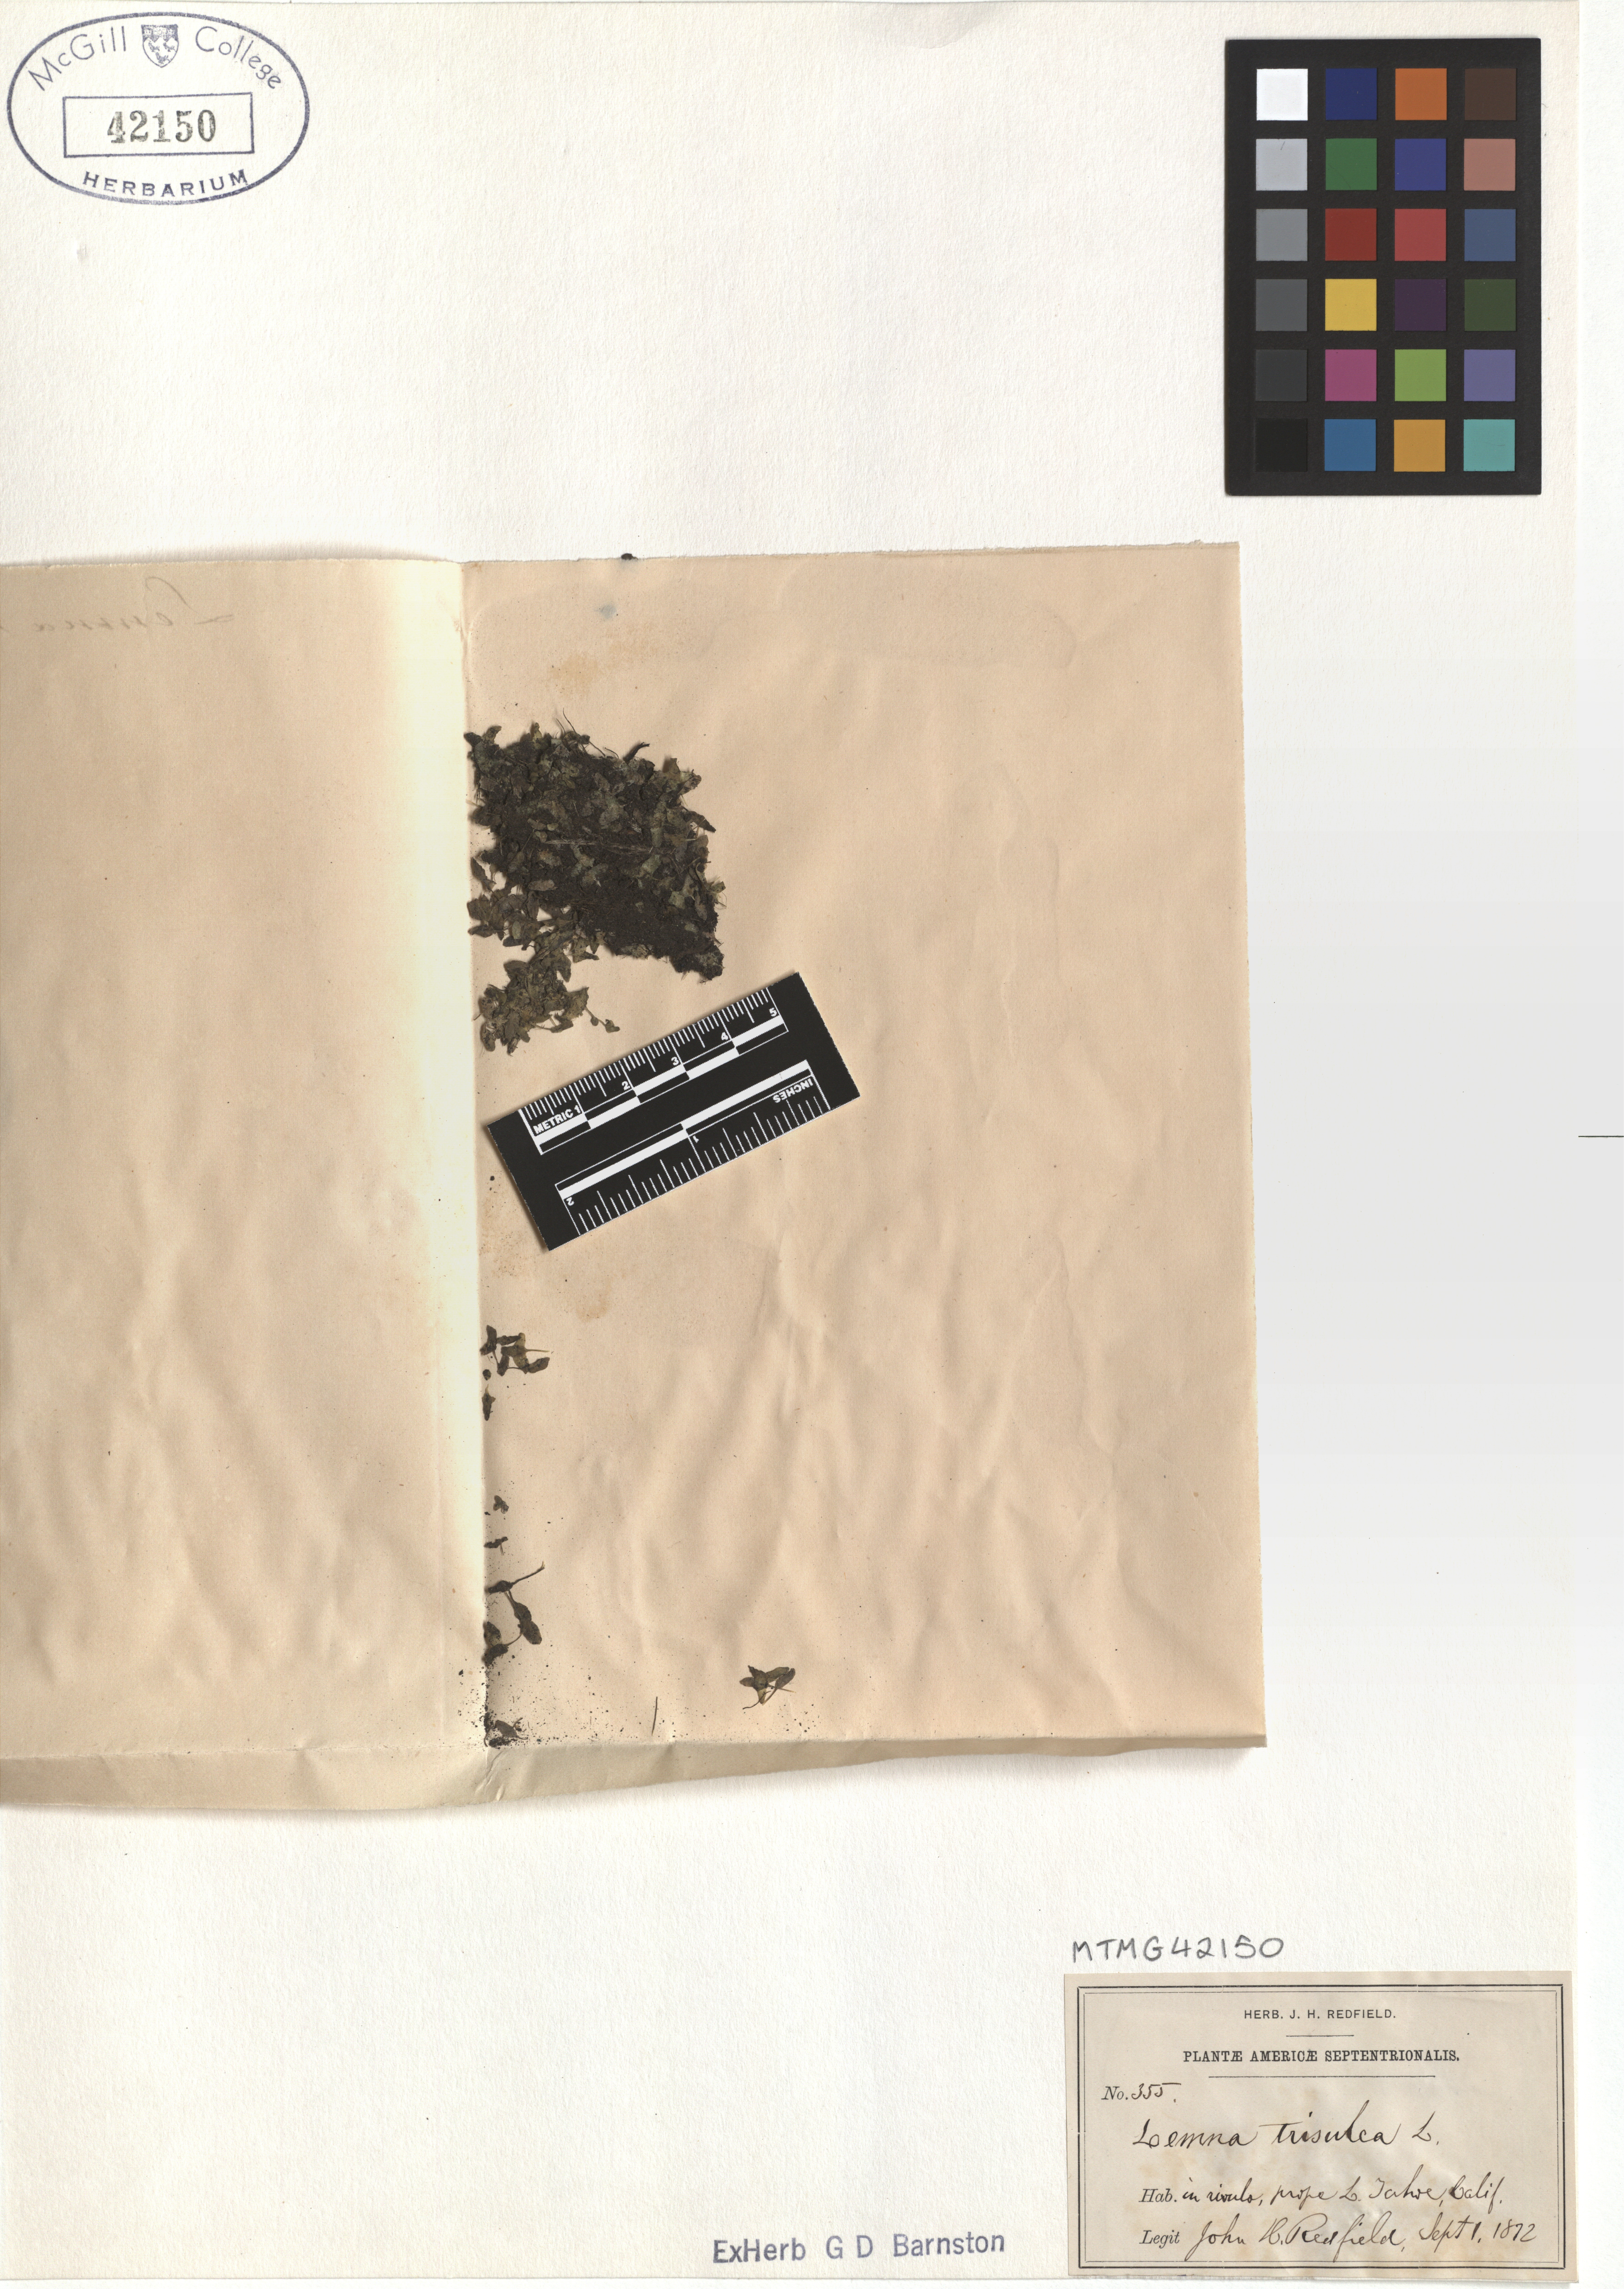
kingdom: Plantae
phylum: Tracheophyta
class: Liliopsida
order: Alismatales
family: Araceae
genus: Lemna
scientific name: Lemna trisulca
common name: Ivy-leaved duckweed
